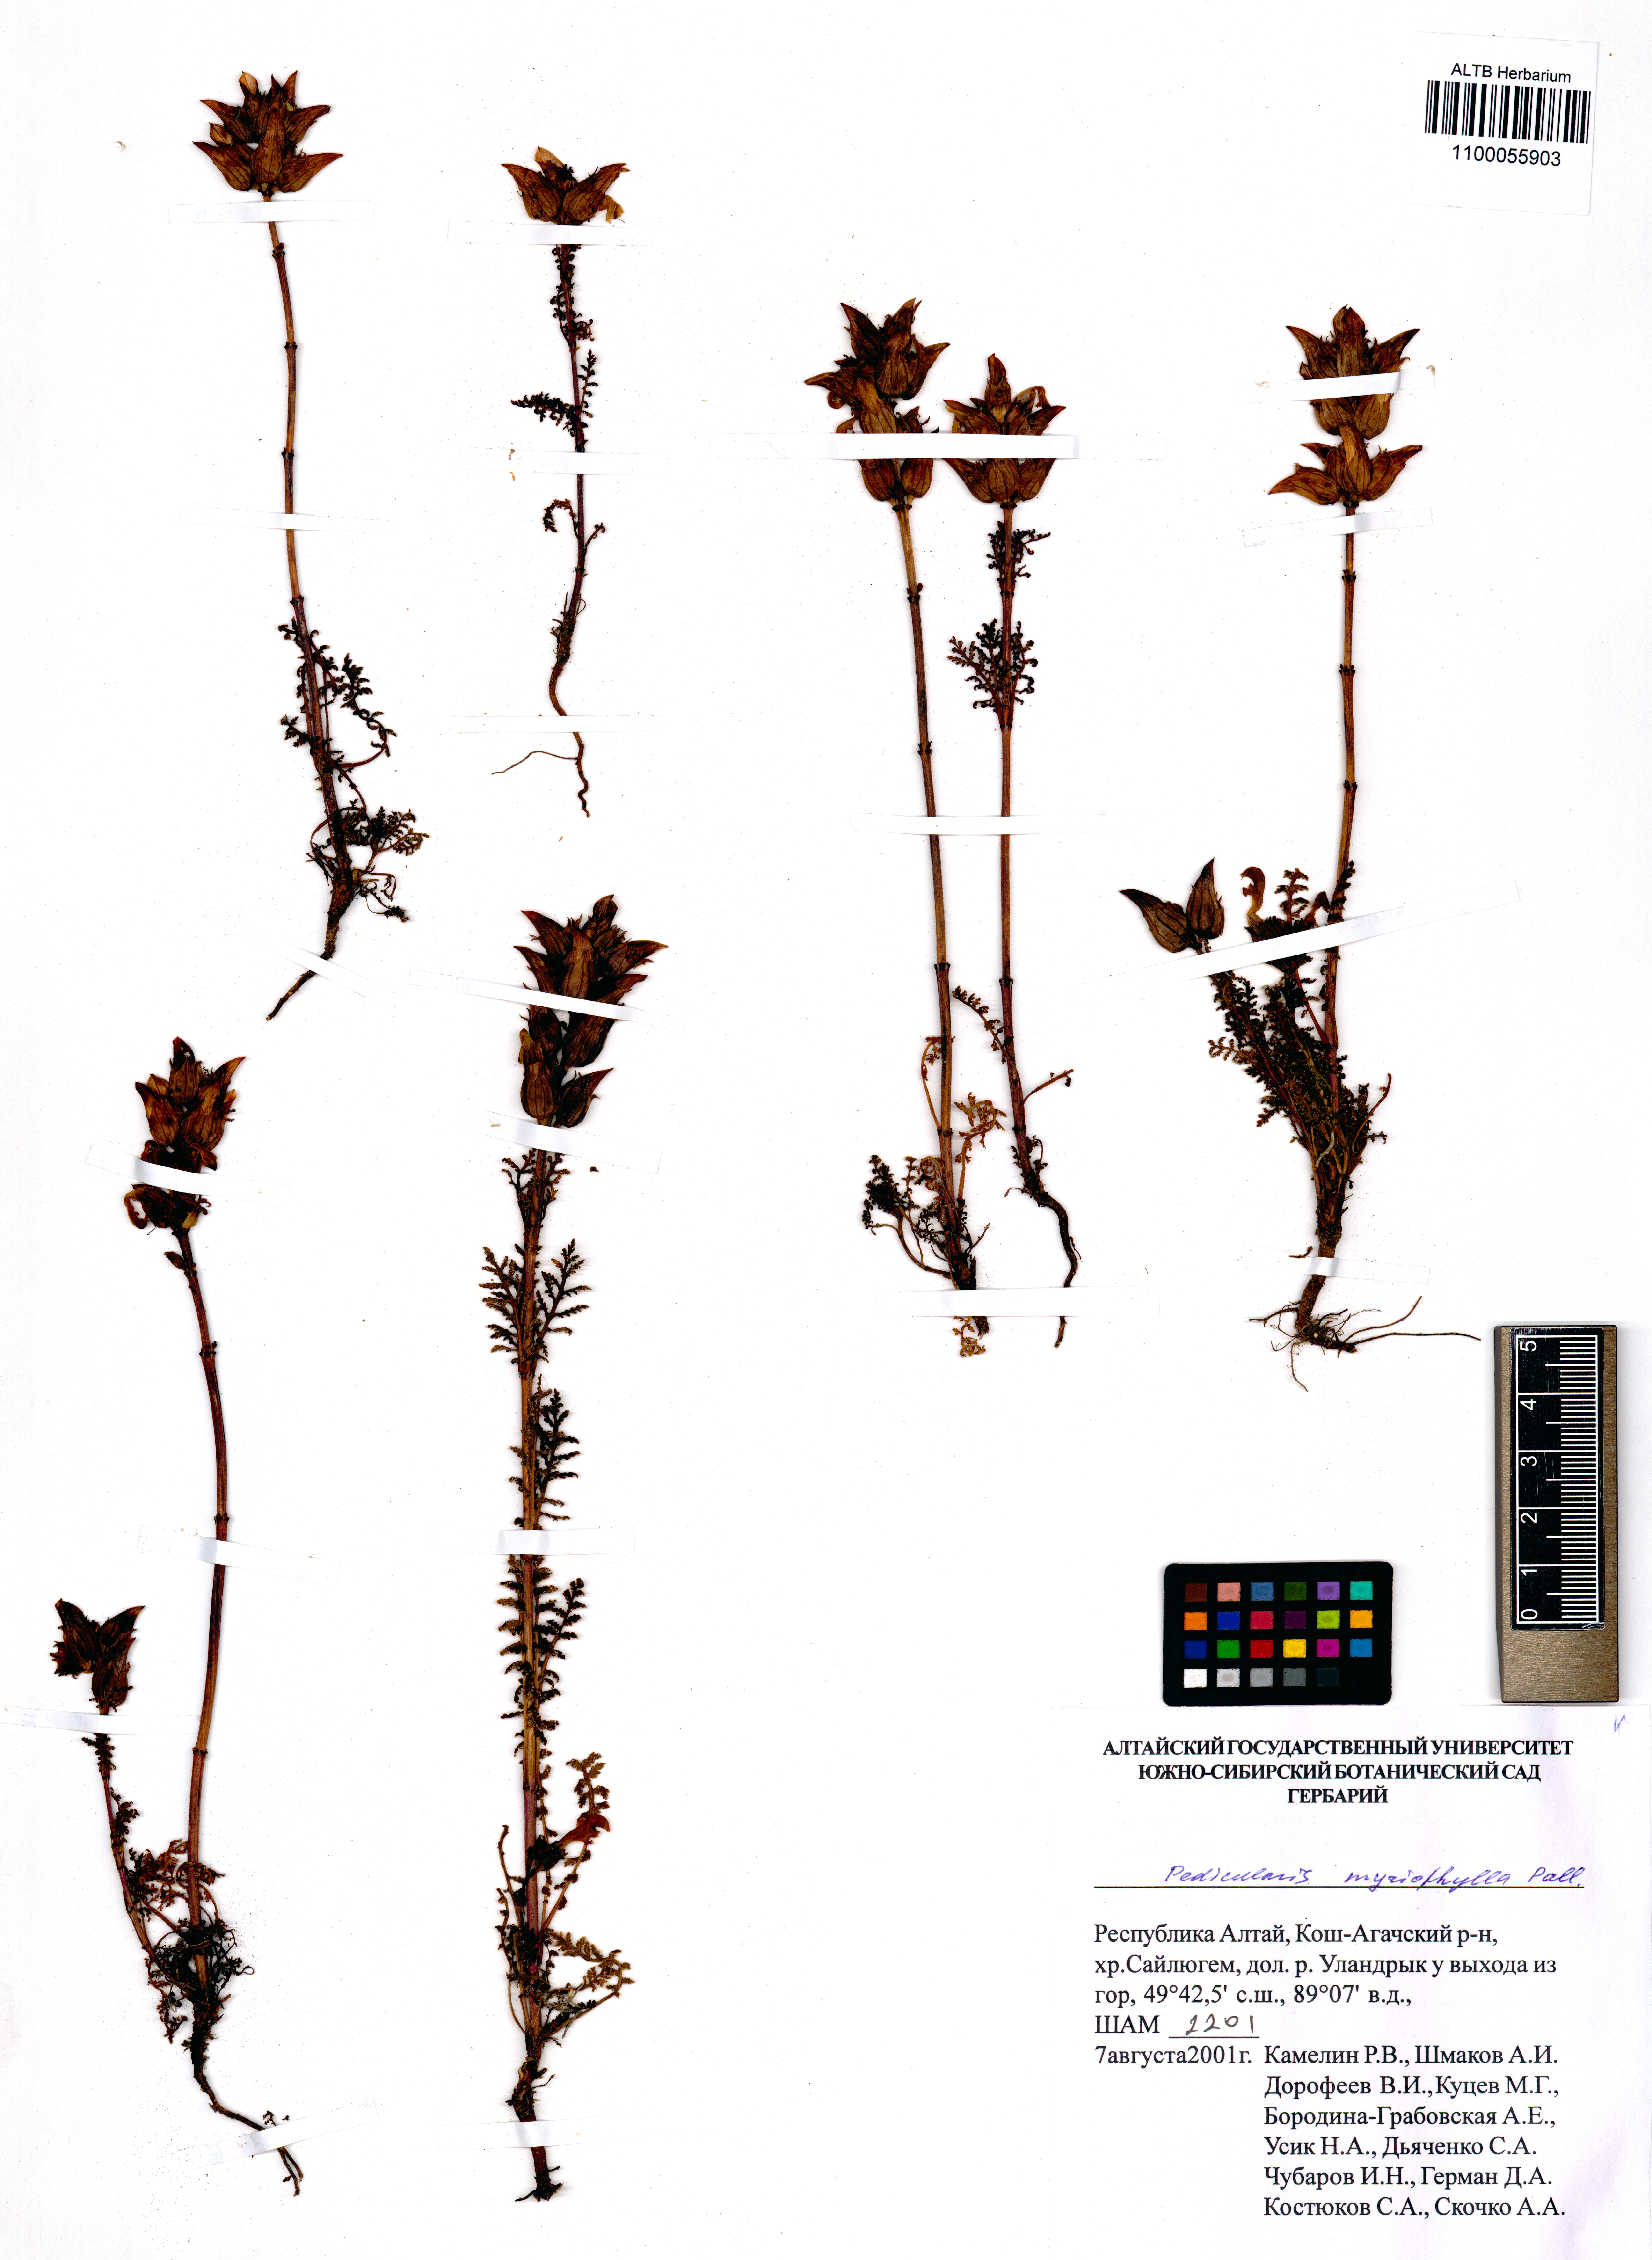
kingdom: Plantae
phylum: Tracheophyta
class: Magnoliopsida
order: Lamiales
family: Orobanchaceae
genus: Pedicularis
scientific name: Pedicularis myriophylla
